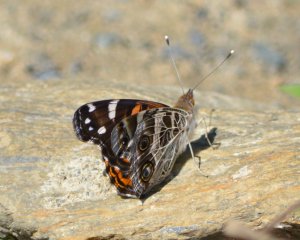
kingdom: Animalia
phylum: Arthropoda
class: Insecta
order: Lepidoptera
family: Nymphalidae
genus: Vanessa
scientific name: Vanessa virginiensis
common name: American Lady
